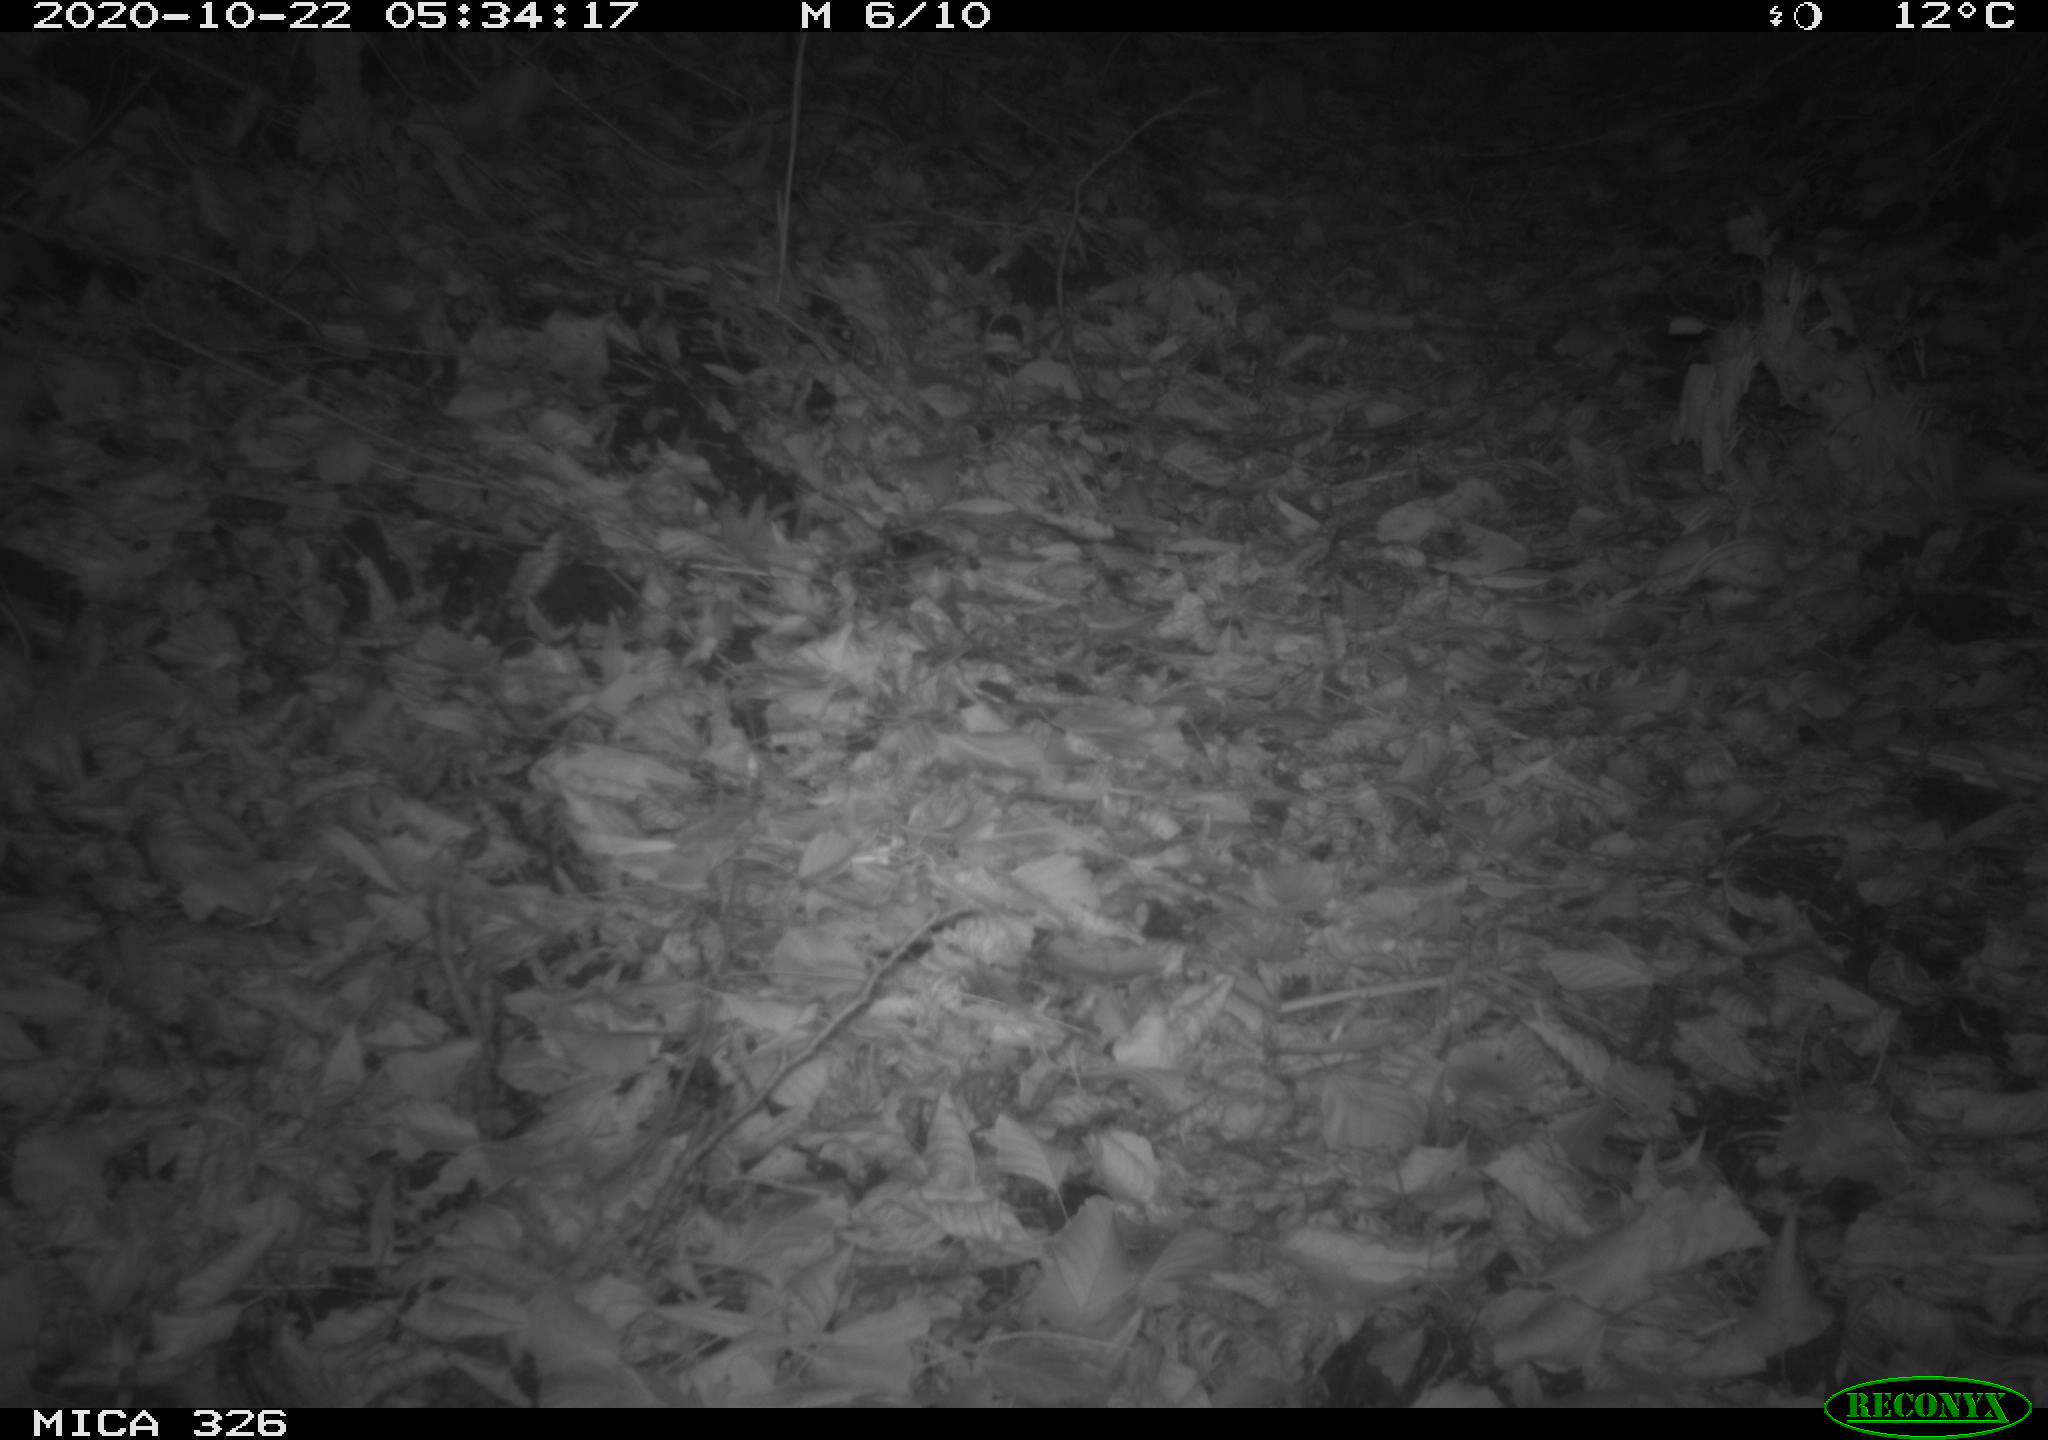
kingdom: Animalia
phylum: Chordata
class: Mammalia
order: Carnivora
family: Mustelidae
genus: Lutra
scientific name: Lutra lutra
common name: European otter
